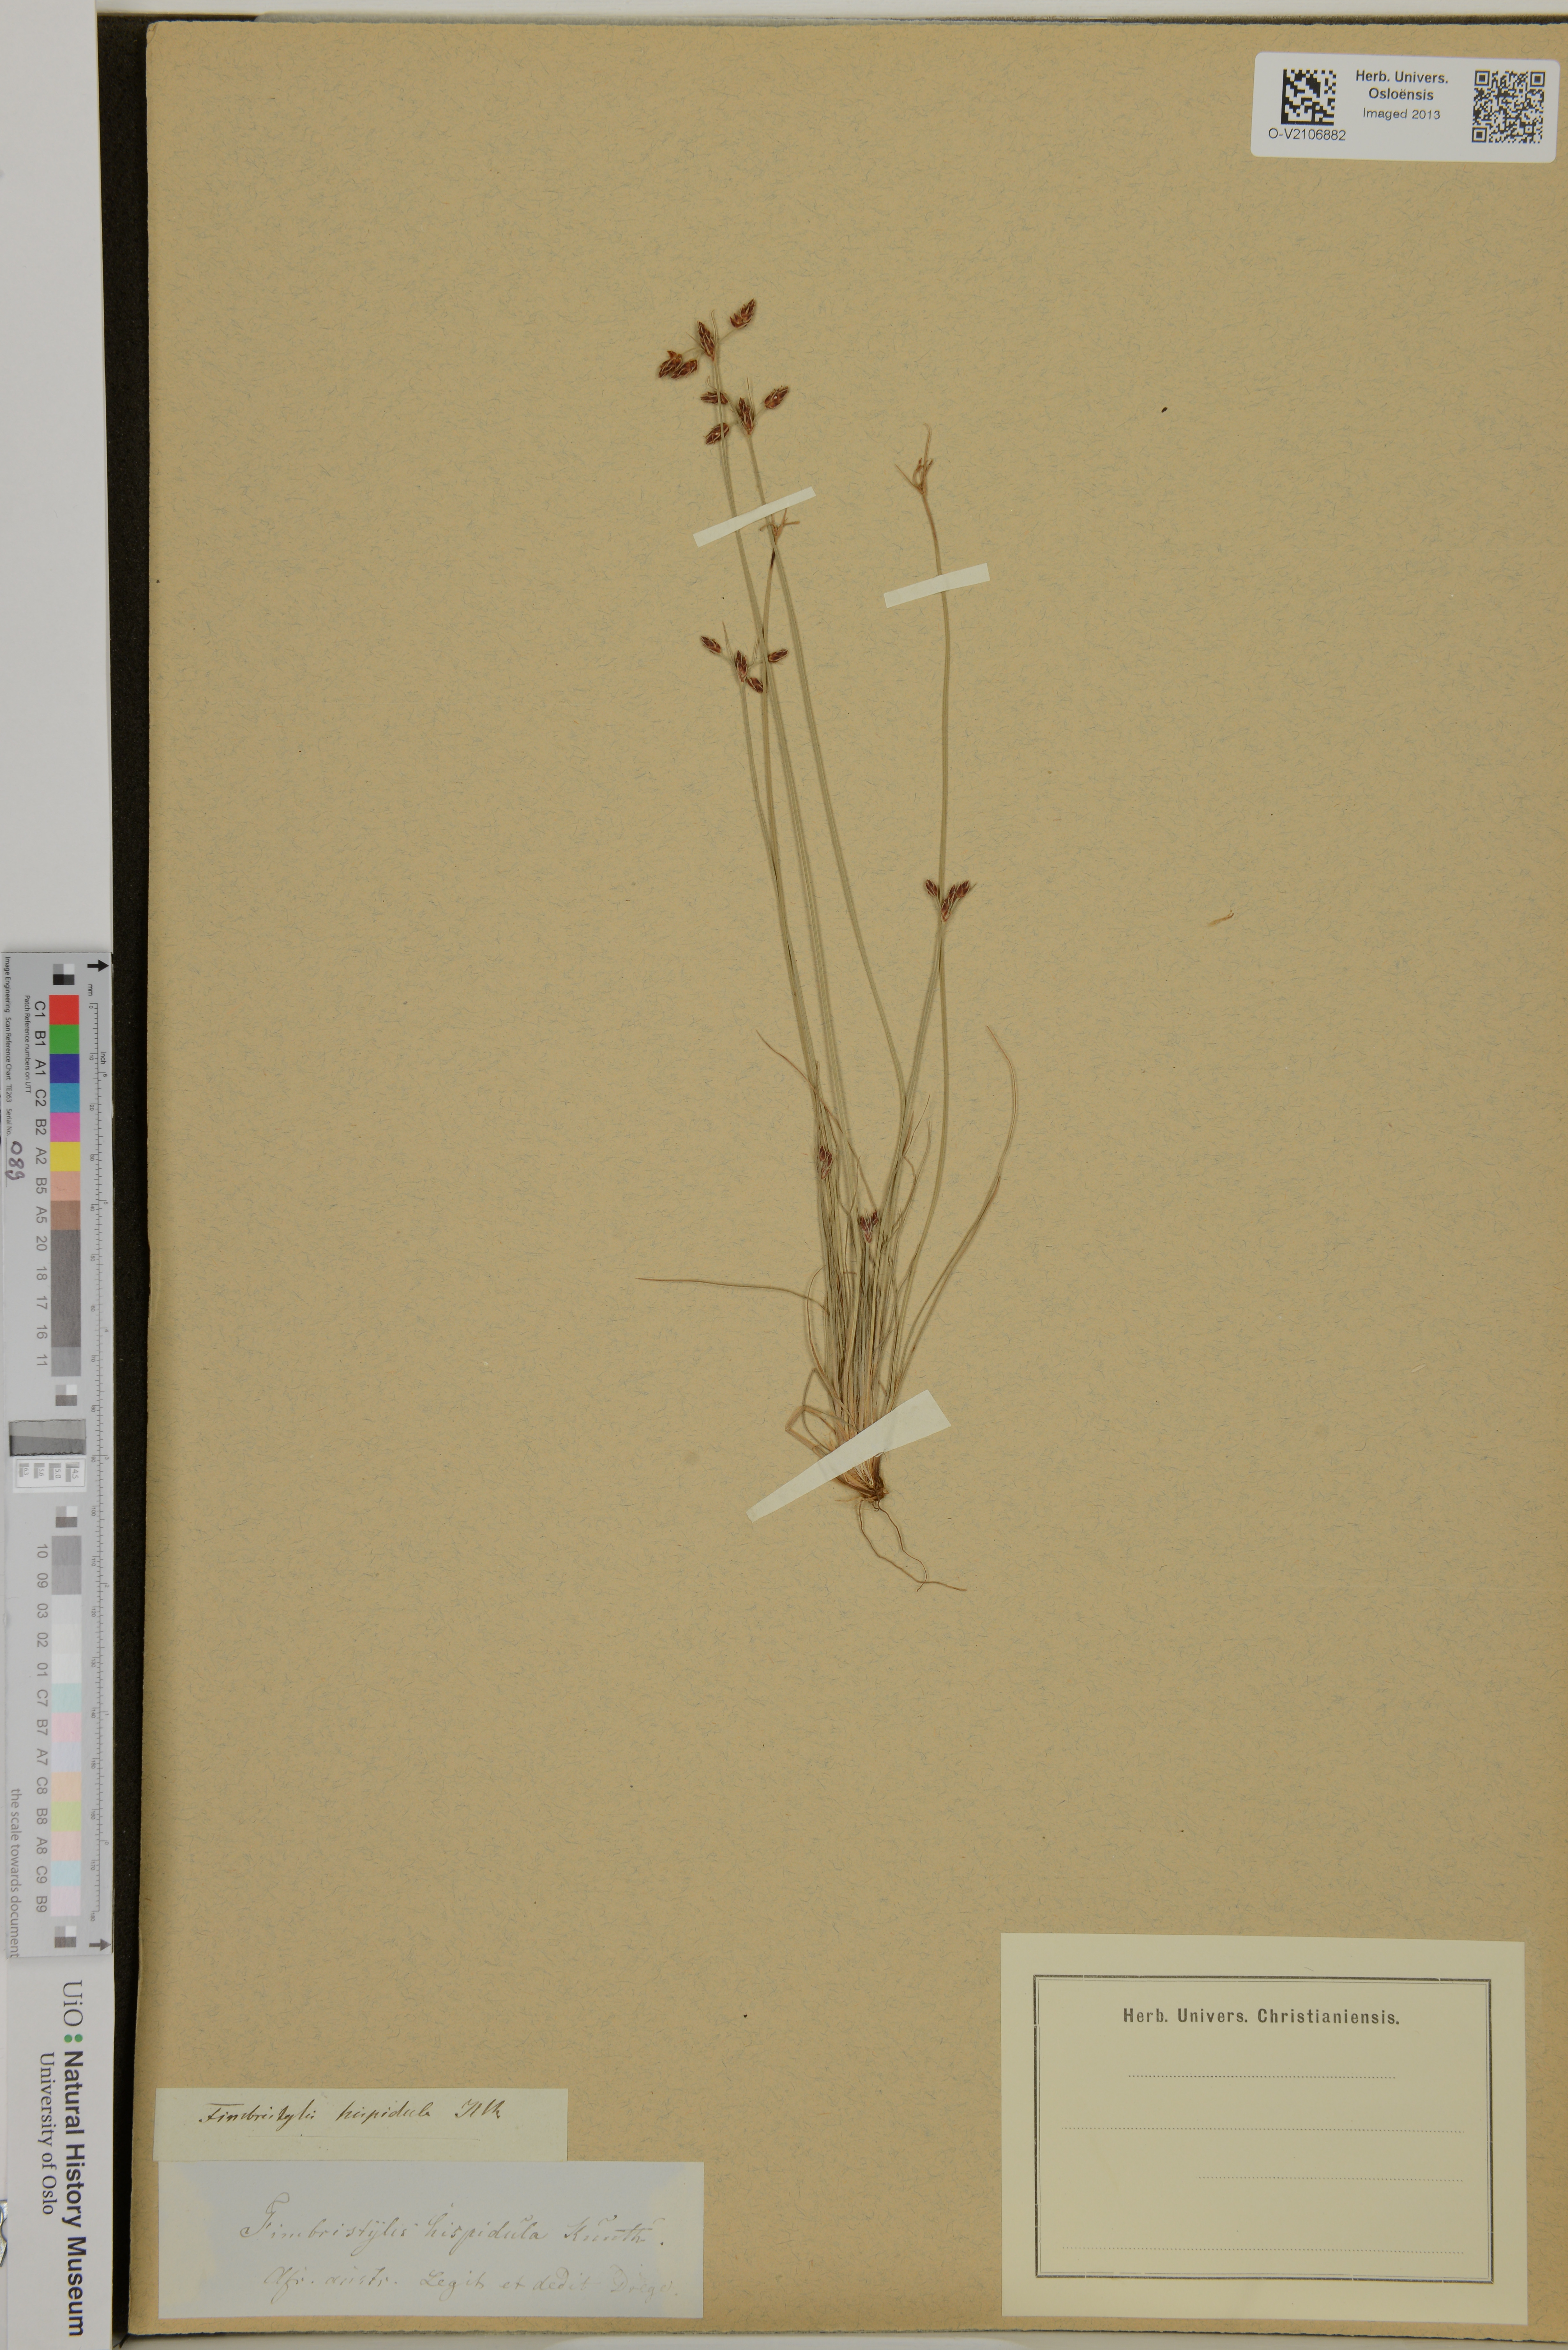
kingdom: Plantae
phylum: Tracheophyta
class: Liliopsida
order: Poales
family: Cyperaceae
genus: Bulbostylis
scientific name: Bulbostylis hispidula
